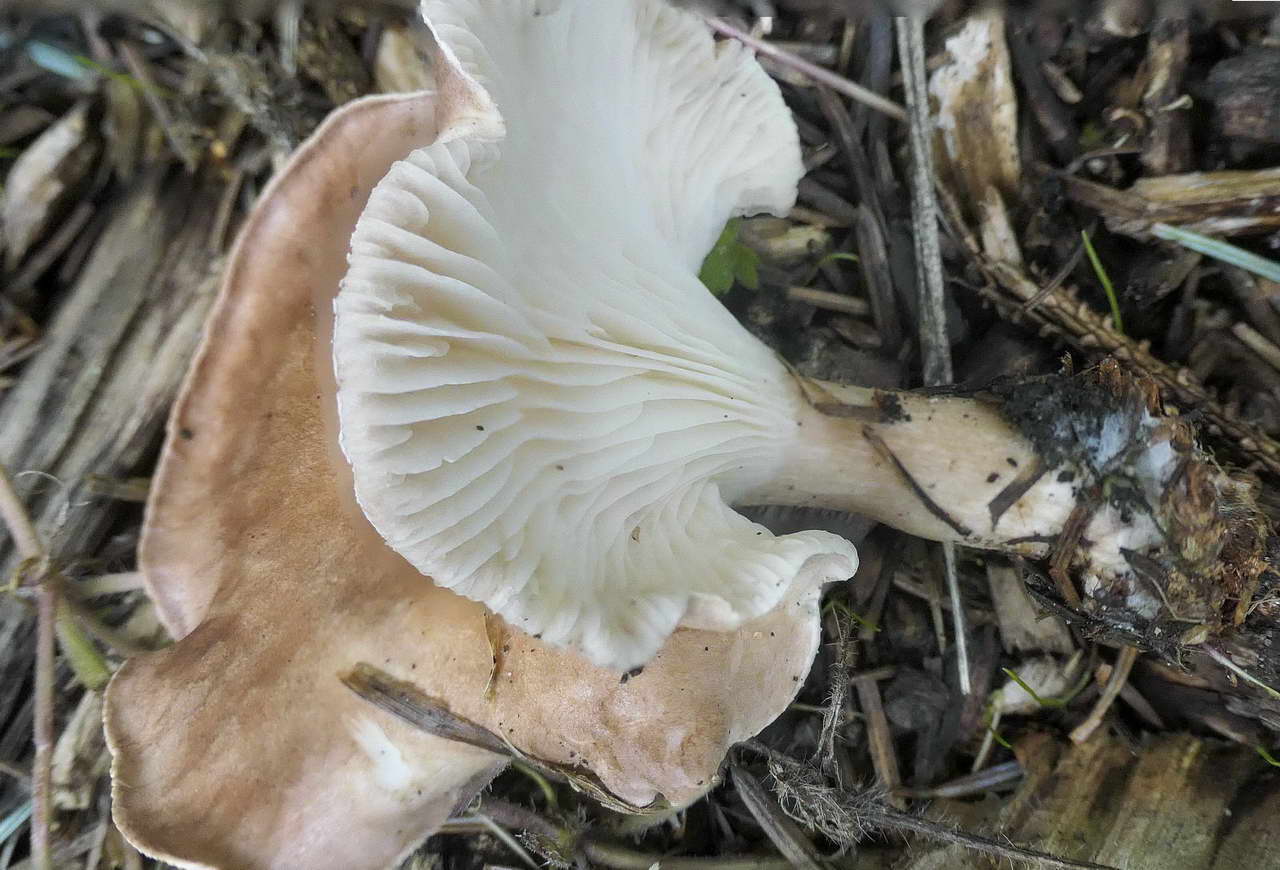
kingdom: Fungi
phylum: Basidiomycota
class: Agaricomycetes
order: Agaricales
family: Tricholomataceae
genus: Clitocybe
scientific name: Clitocybe costata
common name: brunstokket tragthat
